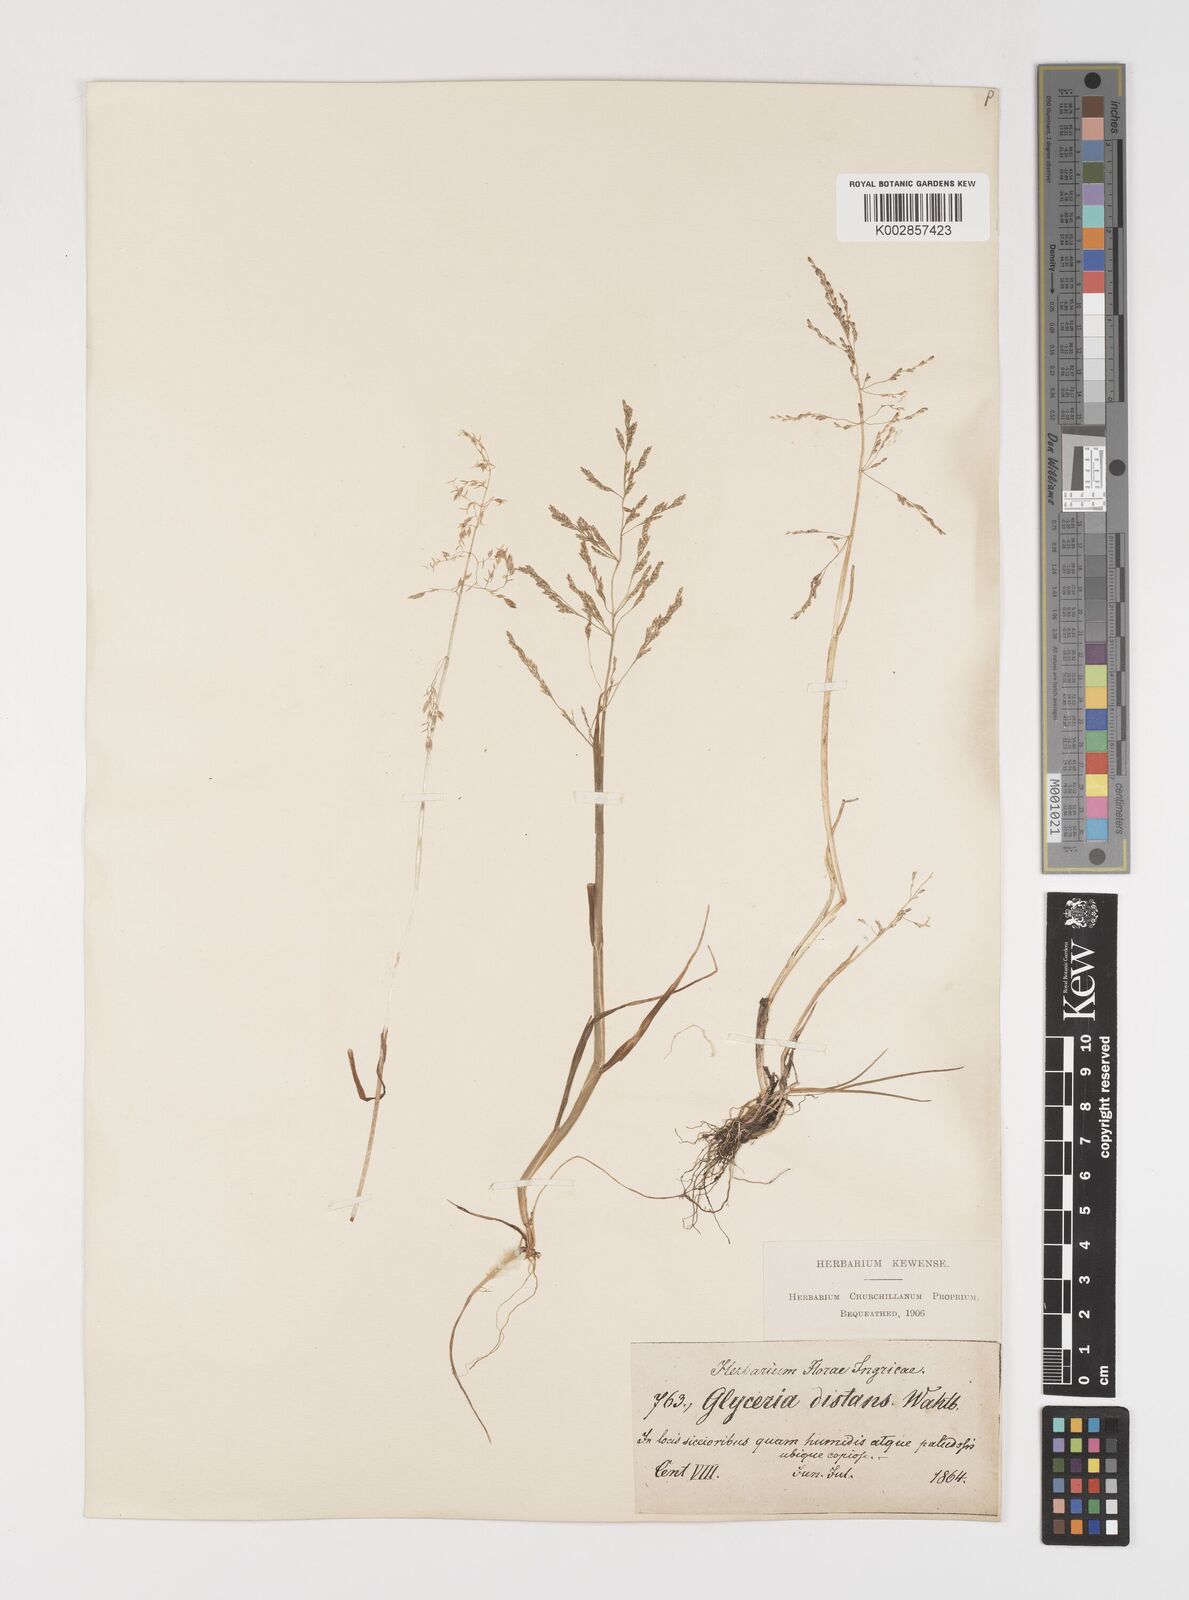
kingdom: Plantae
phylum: Tracheophyta
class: Liliopsida
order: Poales
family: Poaceae
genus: Puccinellia
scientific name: Puccinellia distans
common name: Weeping alkaligrass
